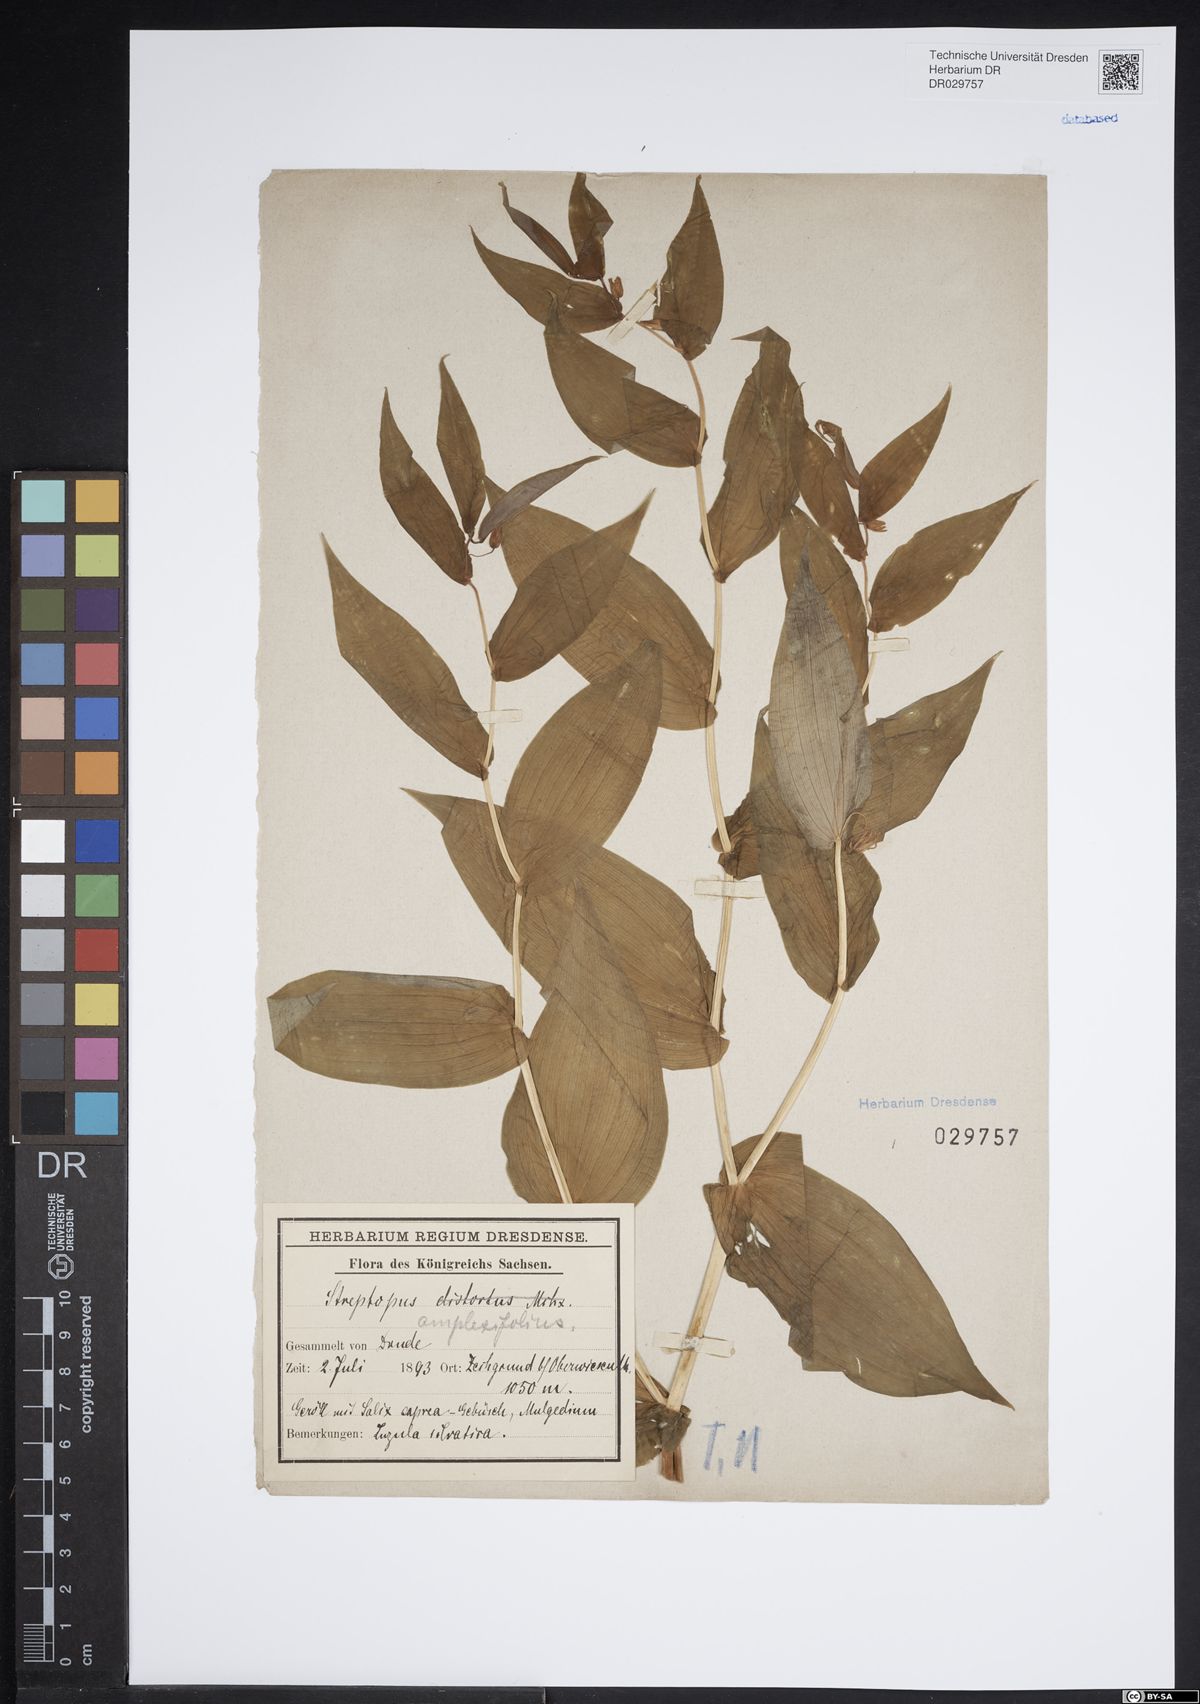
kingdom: Plantae
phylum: Tracheophyta
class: Liliopsida
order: Liliales
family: Liliaceae
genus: Streptopus
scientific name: Streptopus amplexifolius
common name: Clasp twisted stalk
